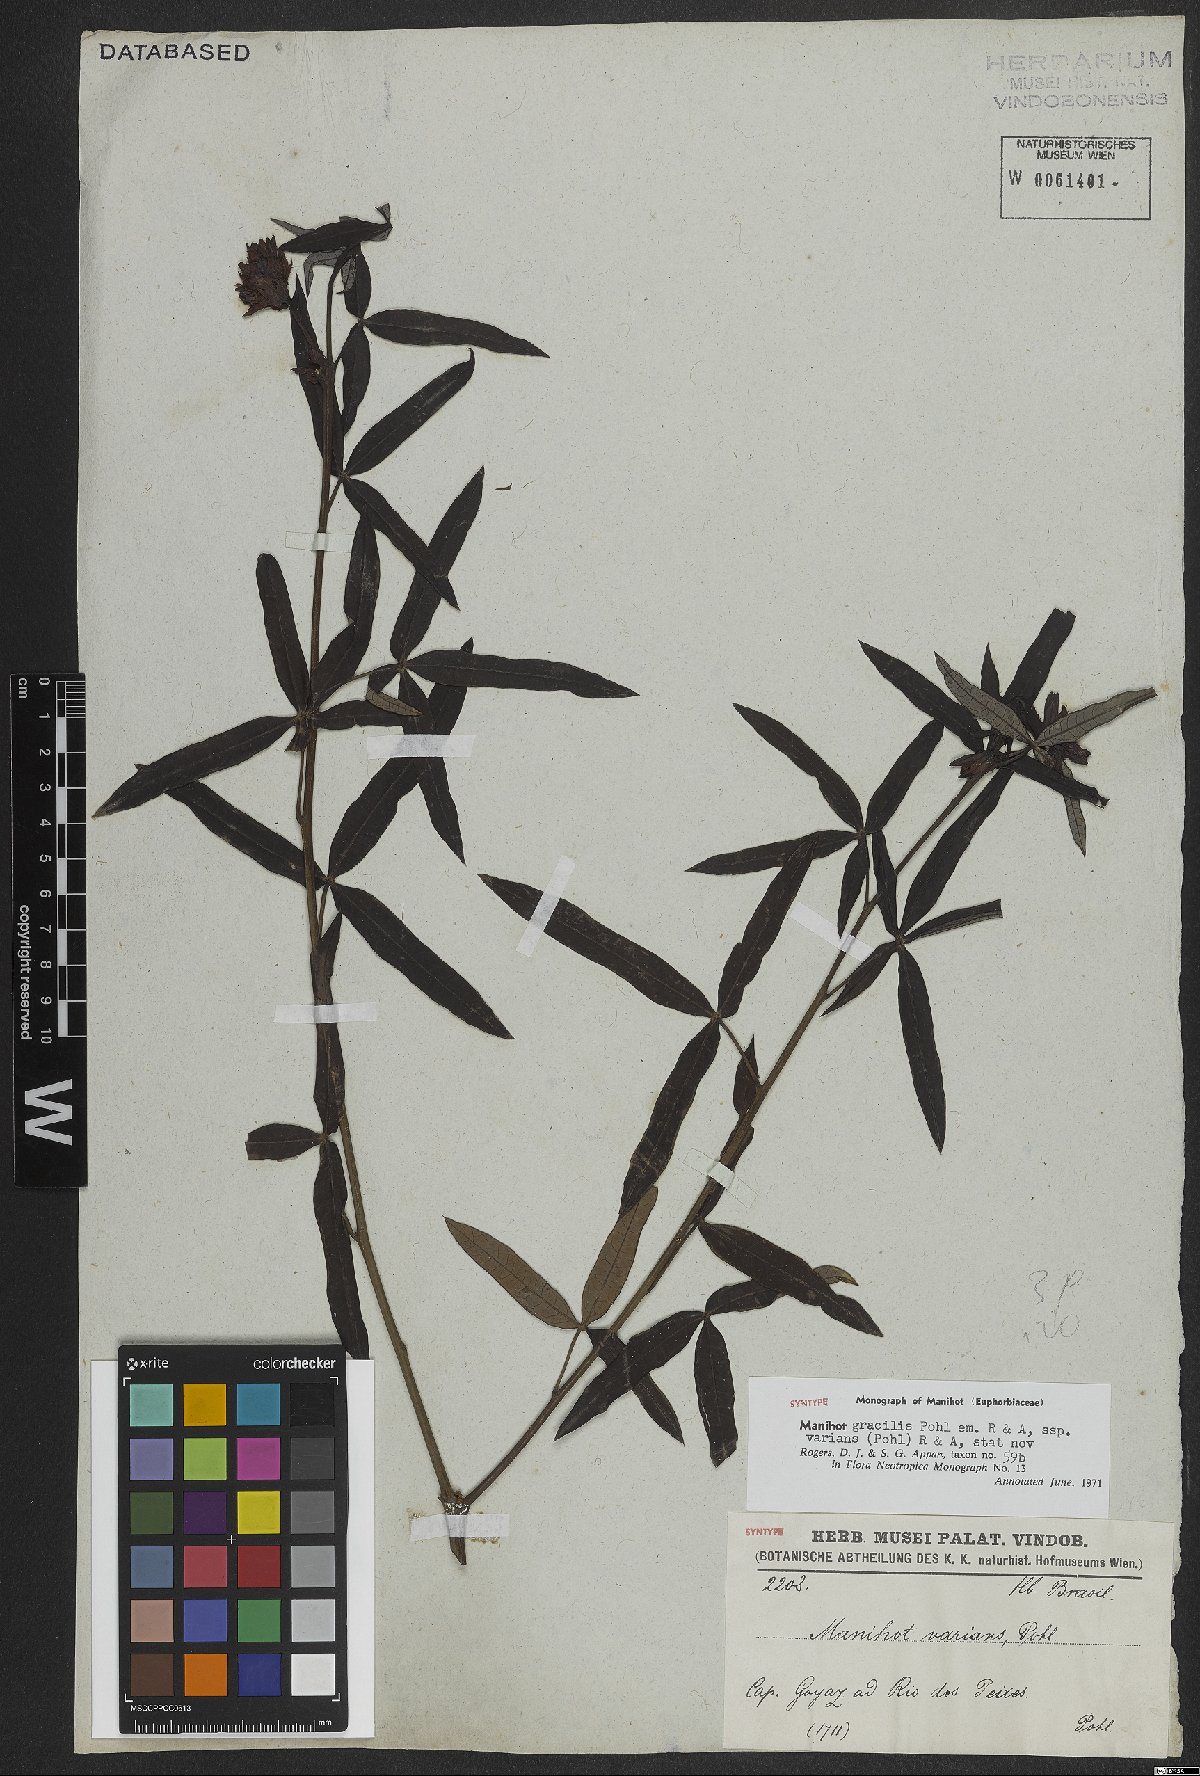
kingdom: Plantae
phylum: Tracheophyta
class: Magnoliopsida
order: Malpighiales
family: Euphorbiaceae
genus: Manihot
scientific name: Manihot gracilis
